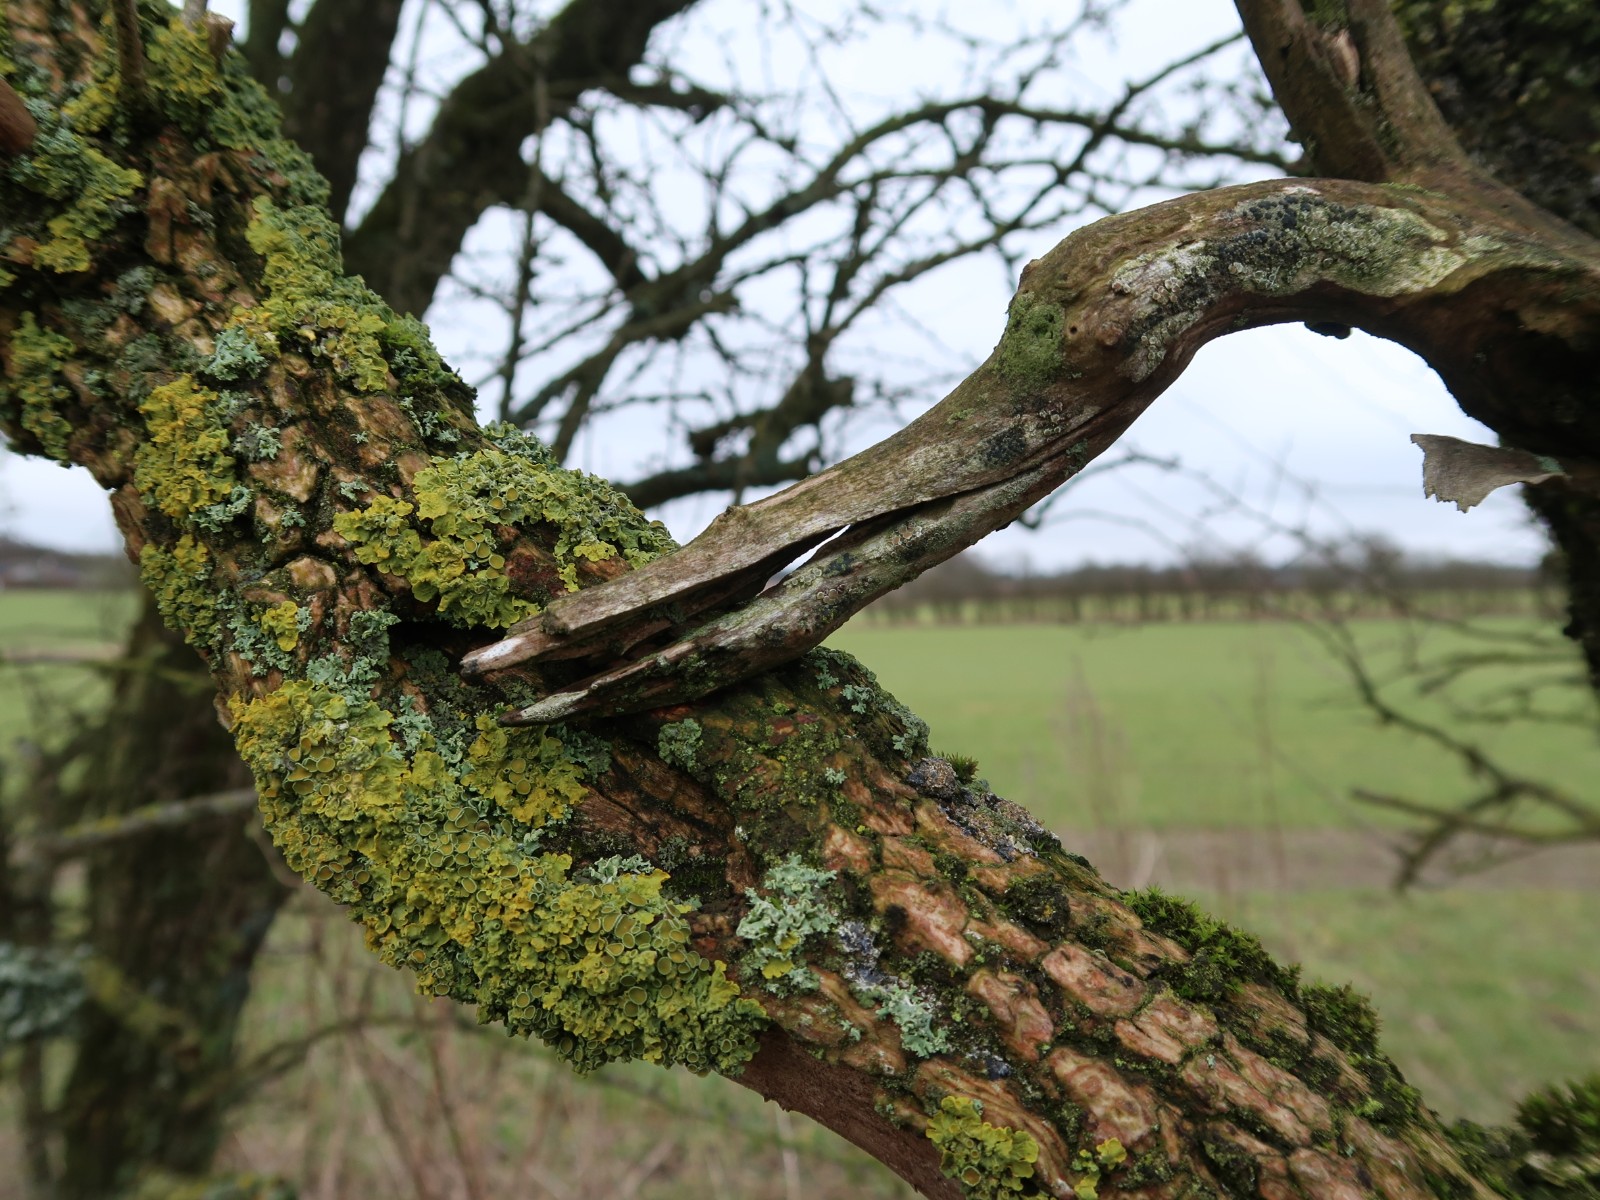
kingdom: Fungi
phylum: Ascomycota
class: Lecanoromycetes
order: Teloschistales
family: Teloschistaceae
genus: Xanthoria
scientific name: Xanthoria parietina
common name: almindelig væggelav
